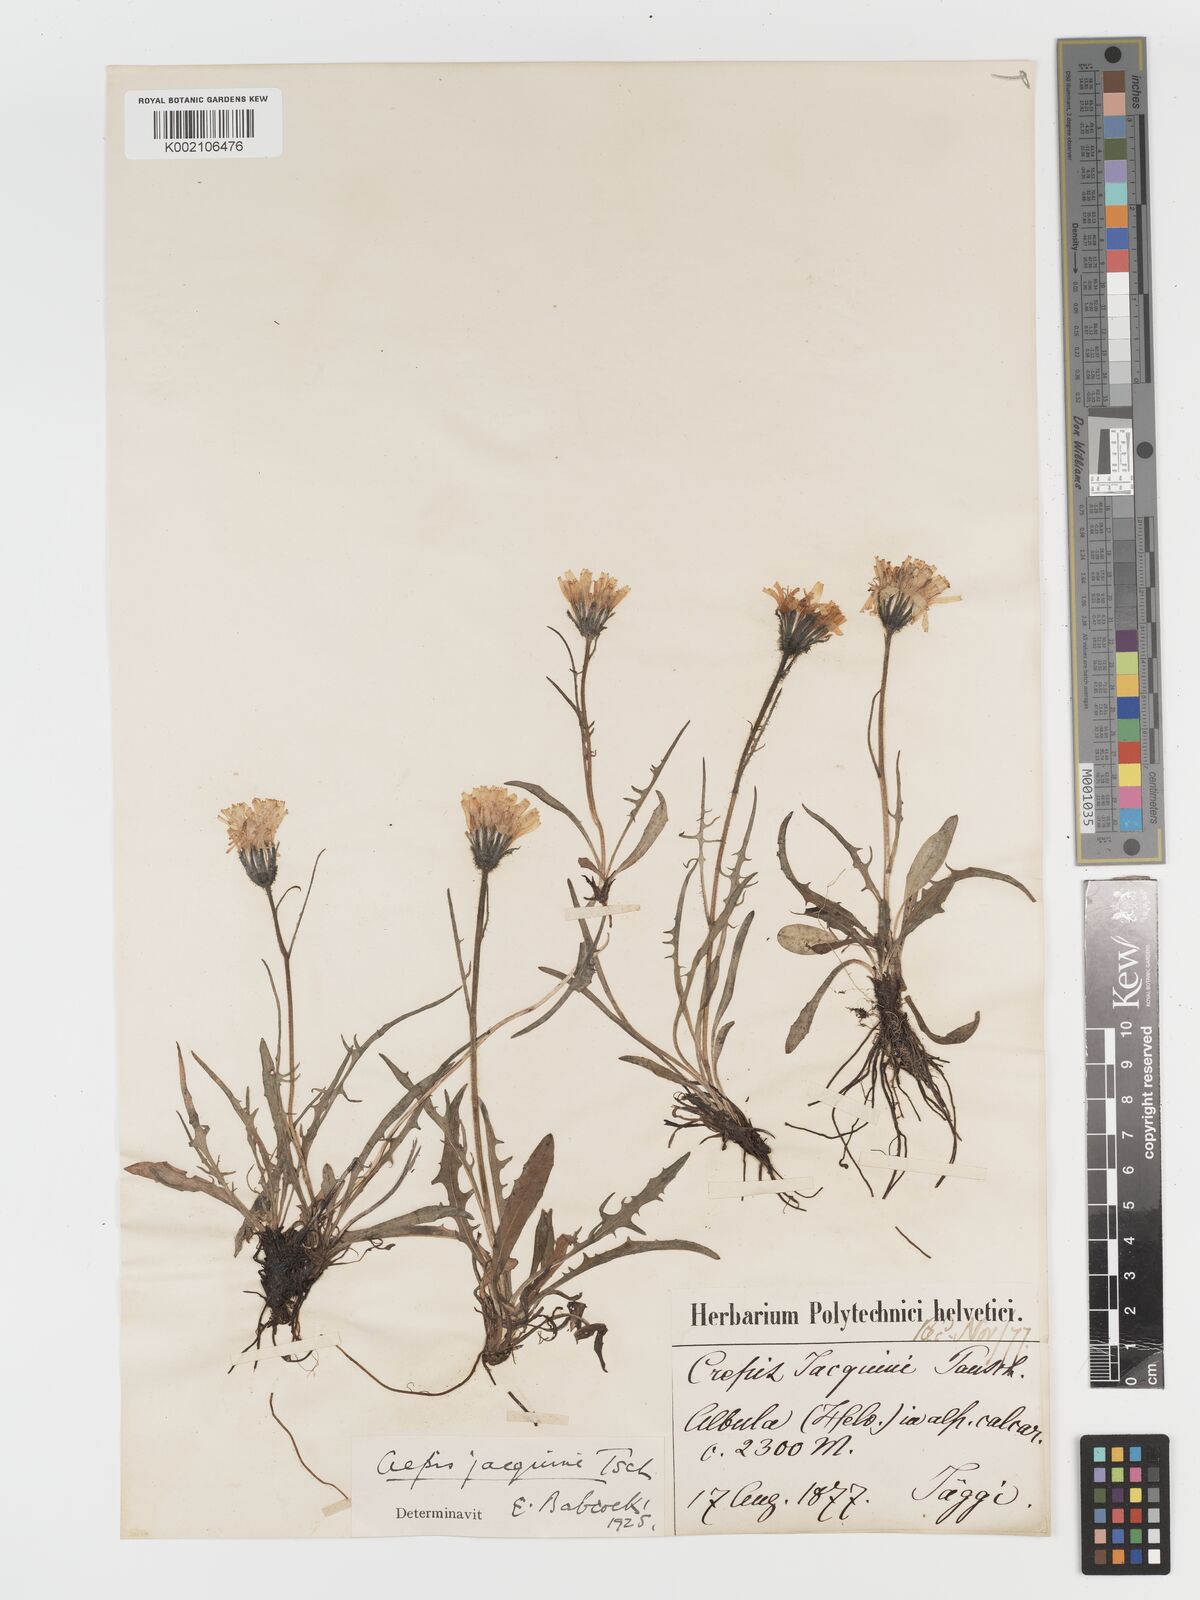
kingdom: Plantae
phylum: Tracheophyta
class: Magnoliopsida
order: Asterales
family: Asteraceae
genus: Crepis
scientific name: Crepis jacquinii
